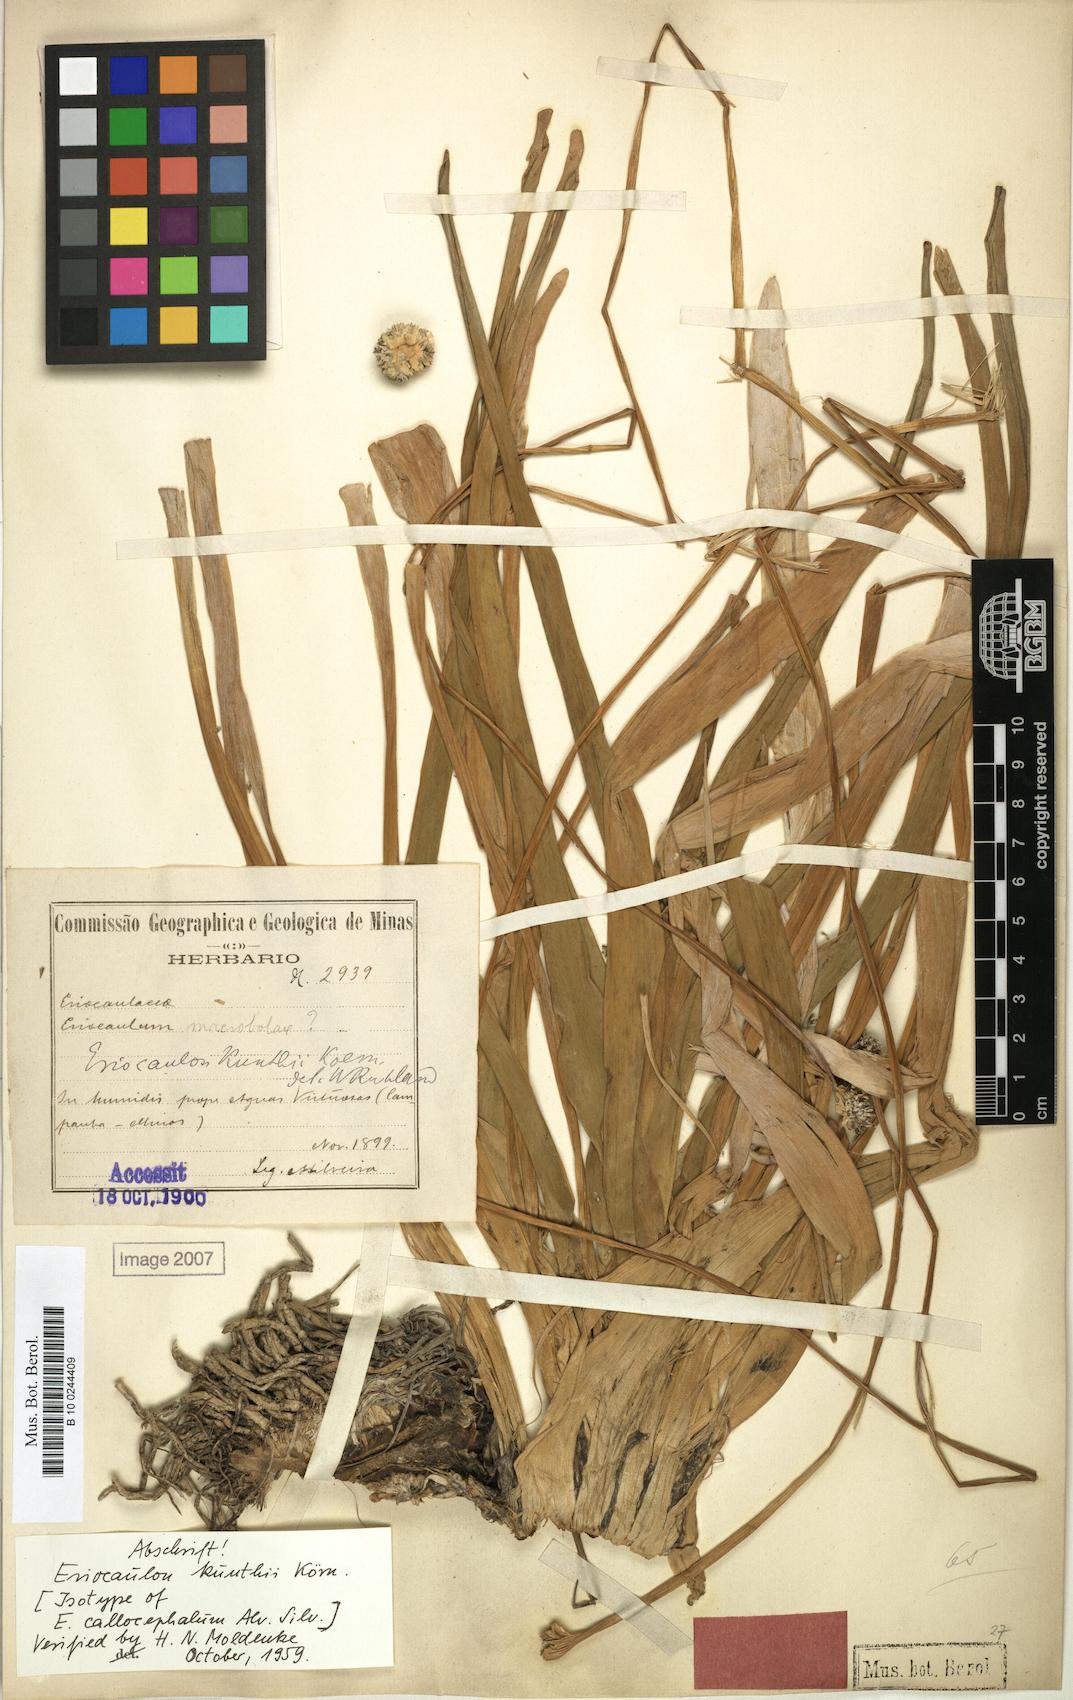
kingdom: Plantae
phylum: Tracheophyta
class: Liliopsida
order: Poales
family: Eriocaulaceae
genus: Eriocaulon
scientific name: Eriocaulon ligulatum
